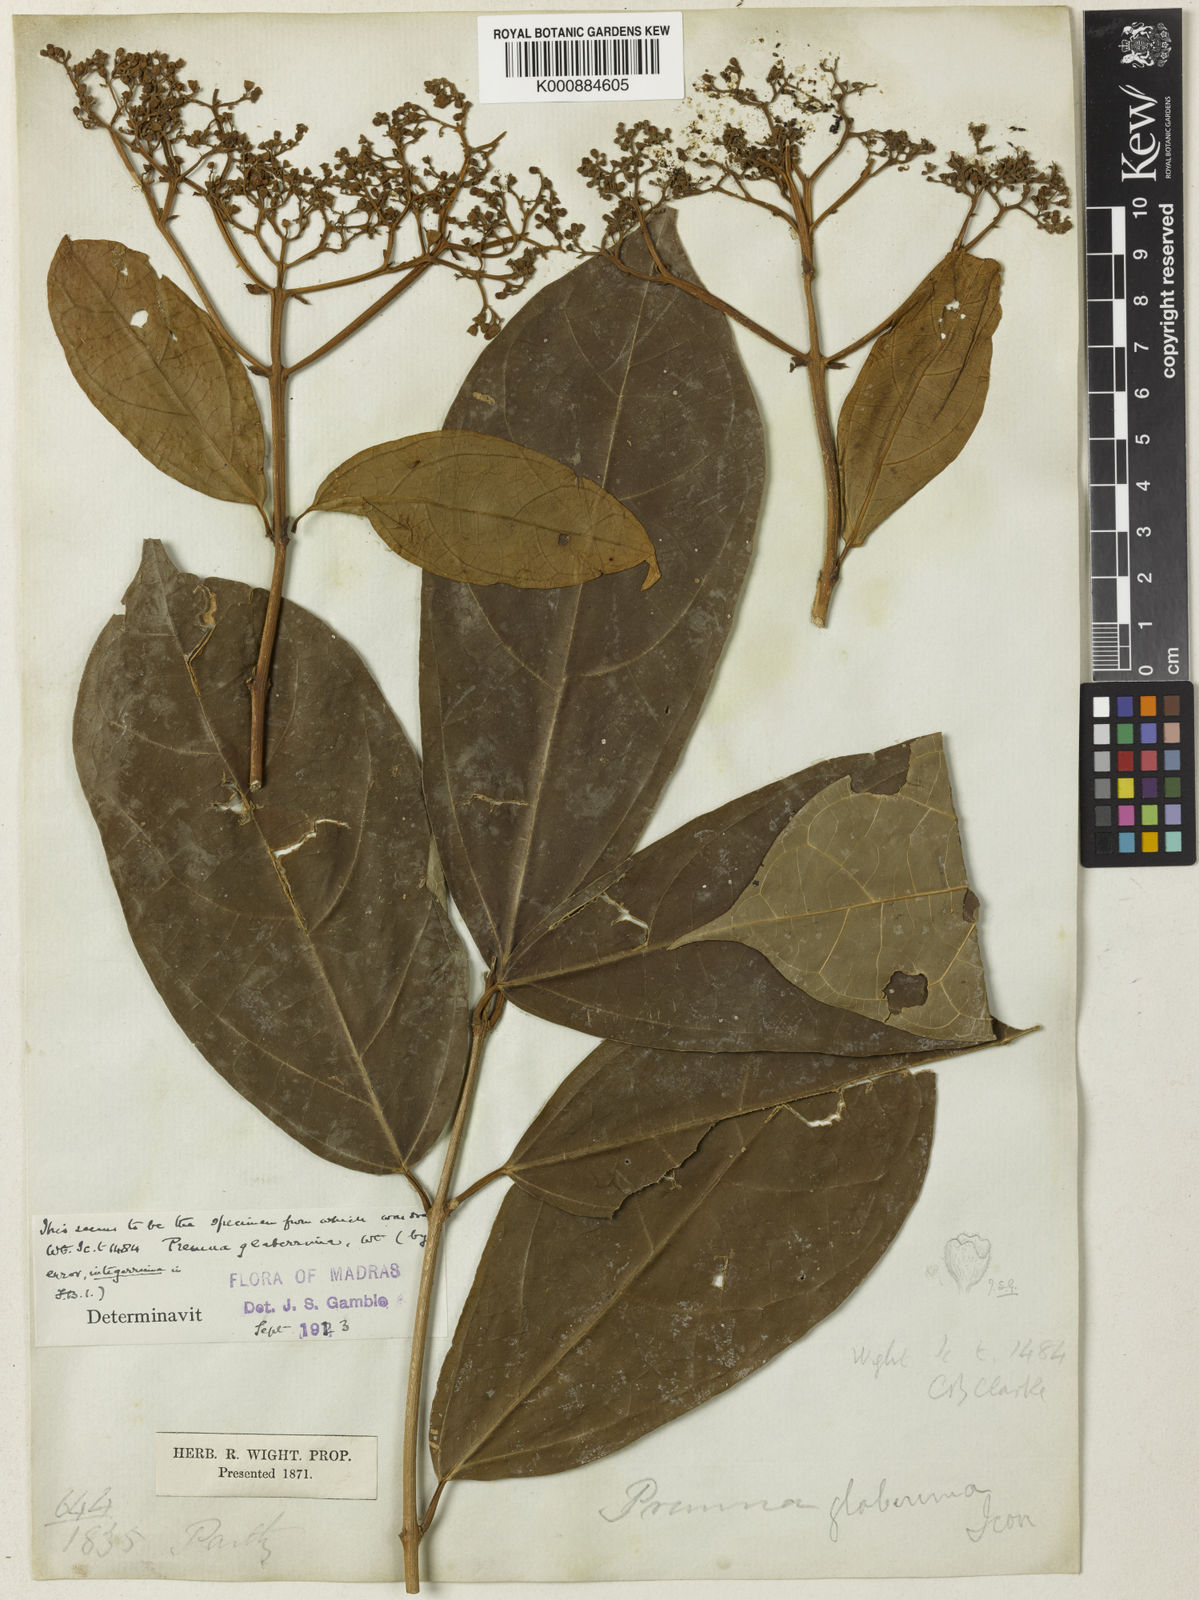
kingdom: Plantae
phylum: Tracheophyta
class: Magnoliopsida
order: Lamiales
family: Lamiaceae
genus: Premna
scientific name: Premna glaberrima
